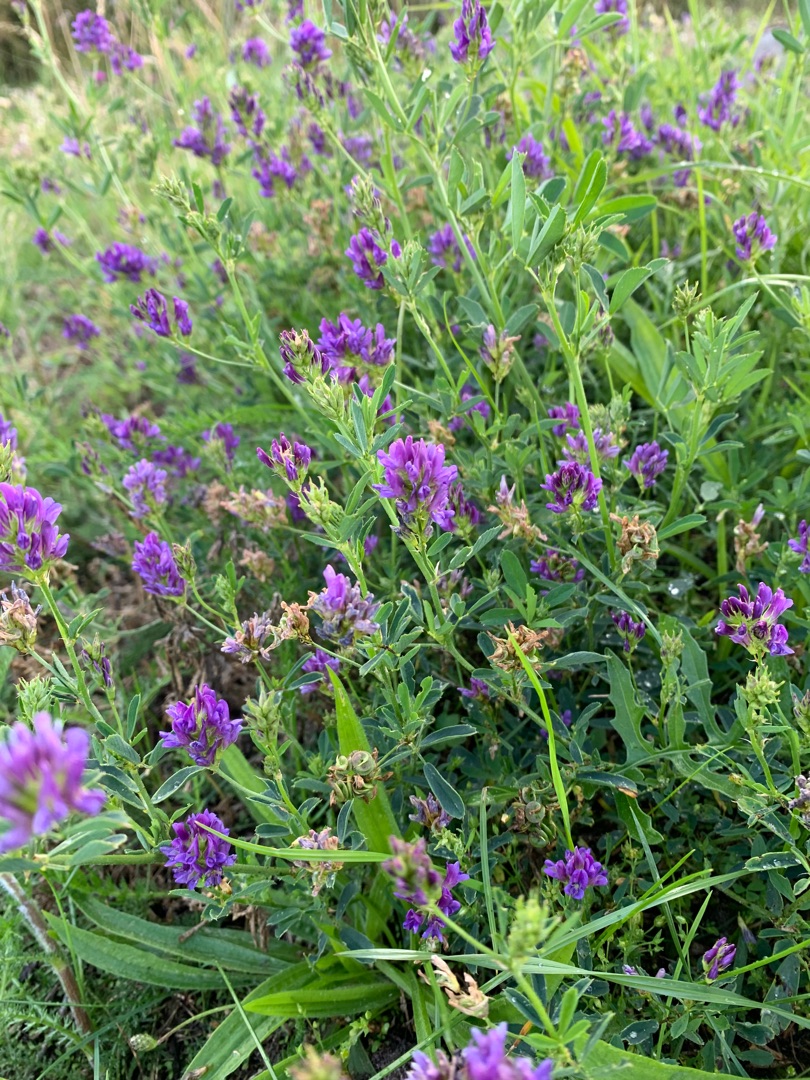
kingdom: Plantae
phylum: Tracheophyta
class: Magnoliopsida
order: Fabales
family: Fabaceae
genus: Medicago
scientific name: Medicago sativa
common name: Lucerne
